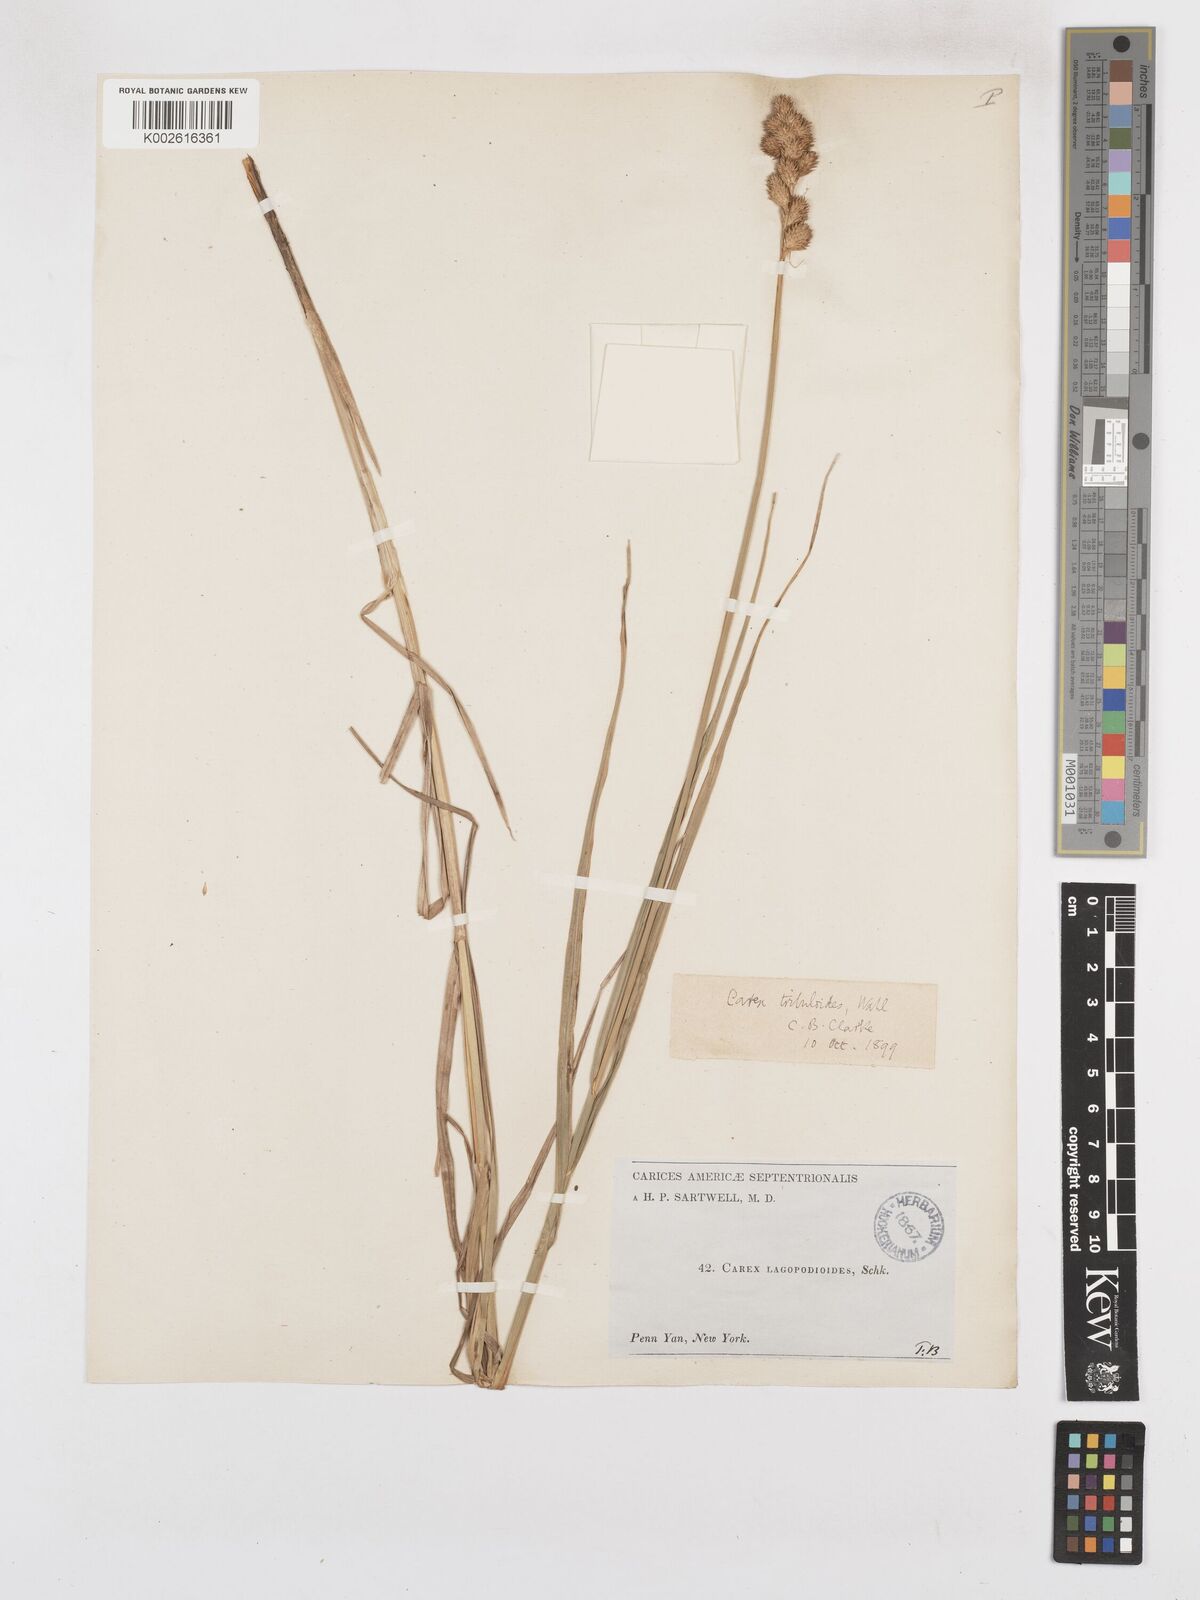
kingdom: Plantae
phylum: Tracheophyta
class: Liliopsida
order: Poales
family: Cyperaceae
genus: Carex
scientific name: Carex tribuloides
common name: Blunt broom sedge
